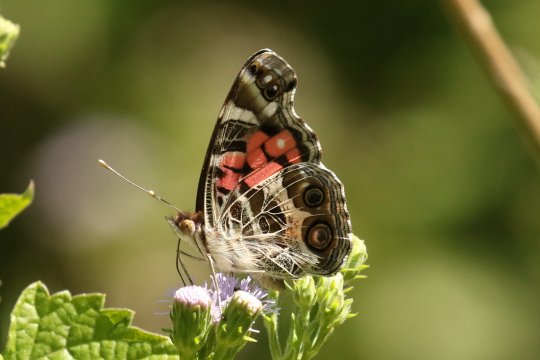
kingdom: Animalia
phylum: Arthropoda
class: Insecta
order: Lepidoptera
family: Nymphalidae
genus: Vanessa
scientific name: Vanessa virginiensis
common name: American Lady
